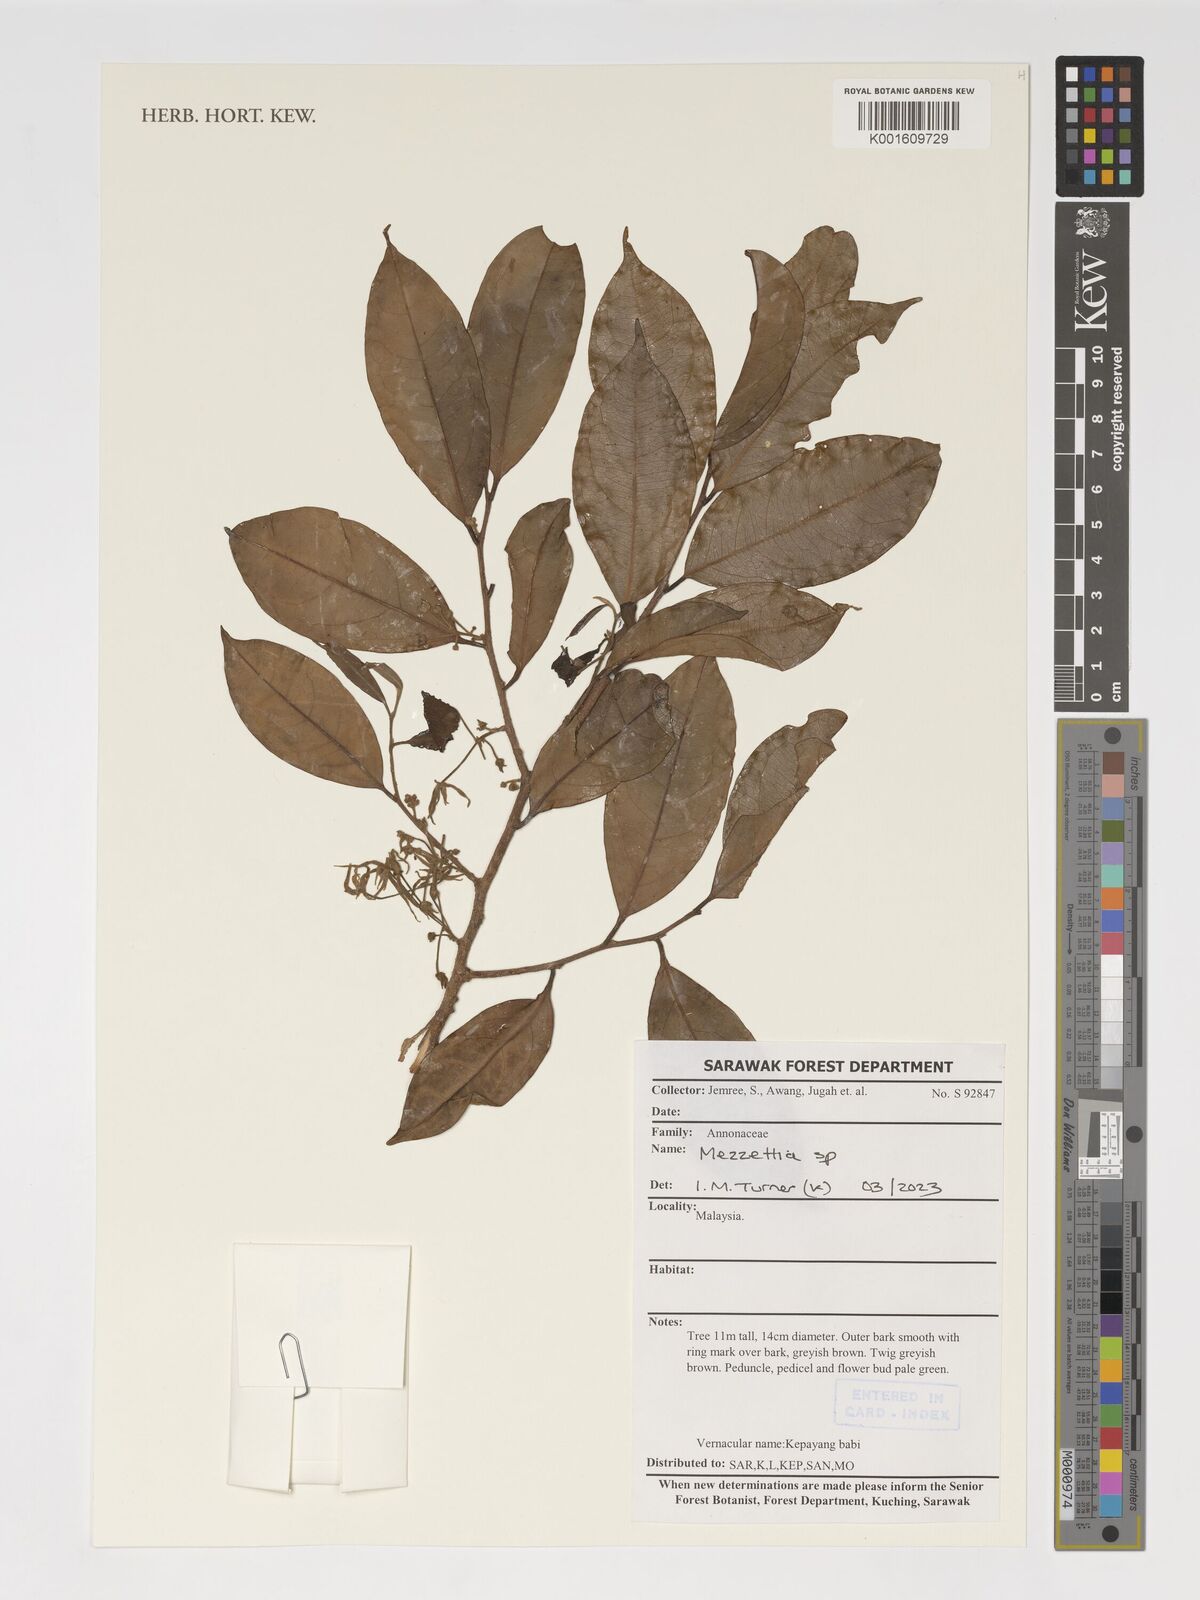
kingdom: Plantae
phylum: Tracheophyta
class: Magnoliopsida
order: Magnoliales
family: Annonaceae
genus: Mezzettia
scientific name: Mezzettia
